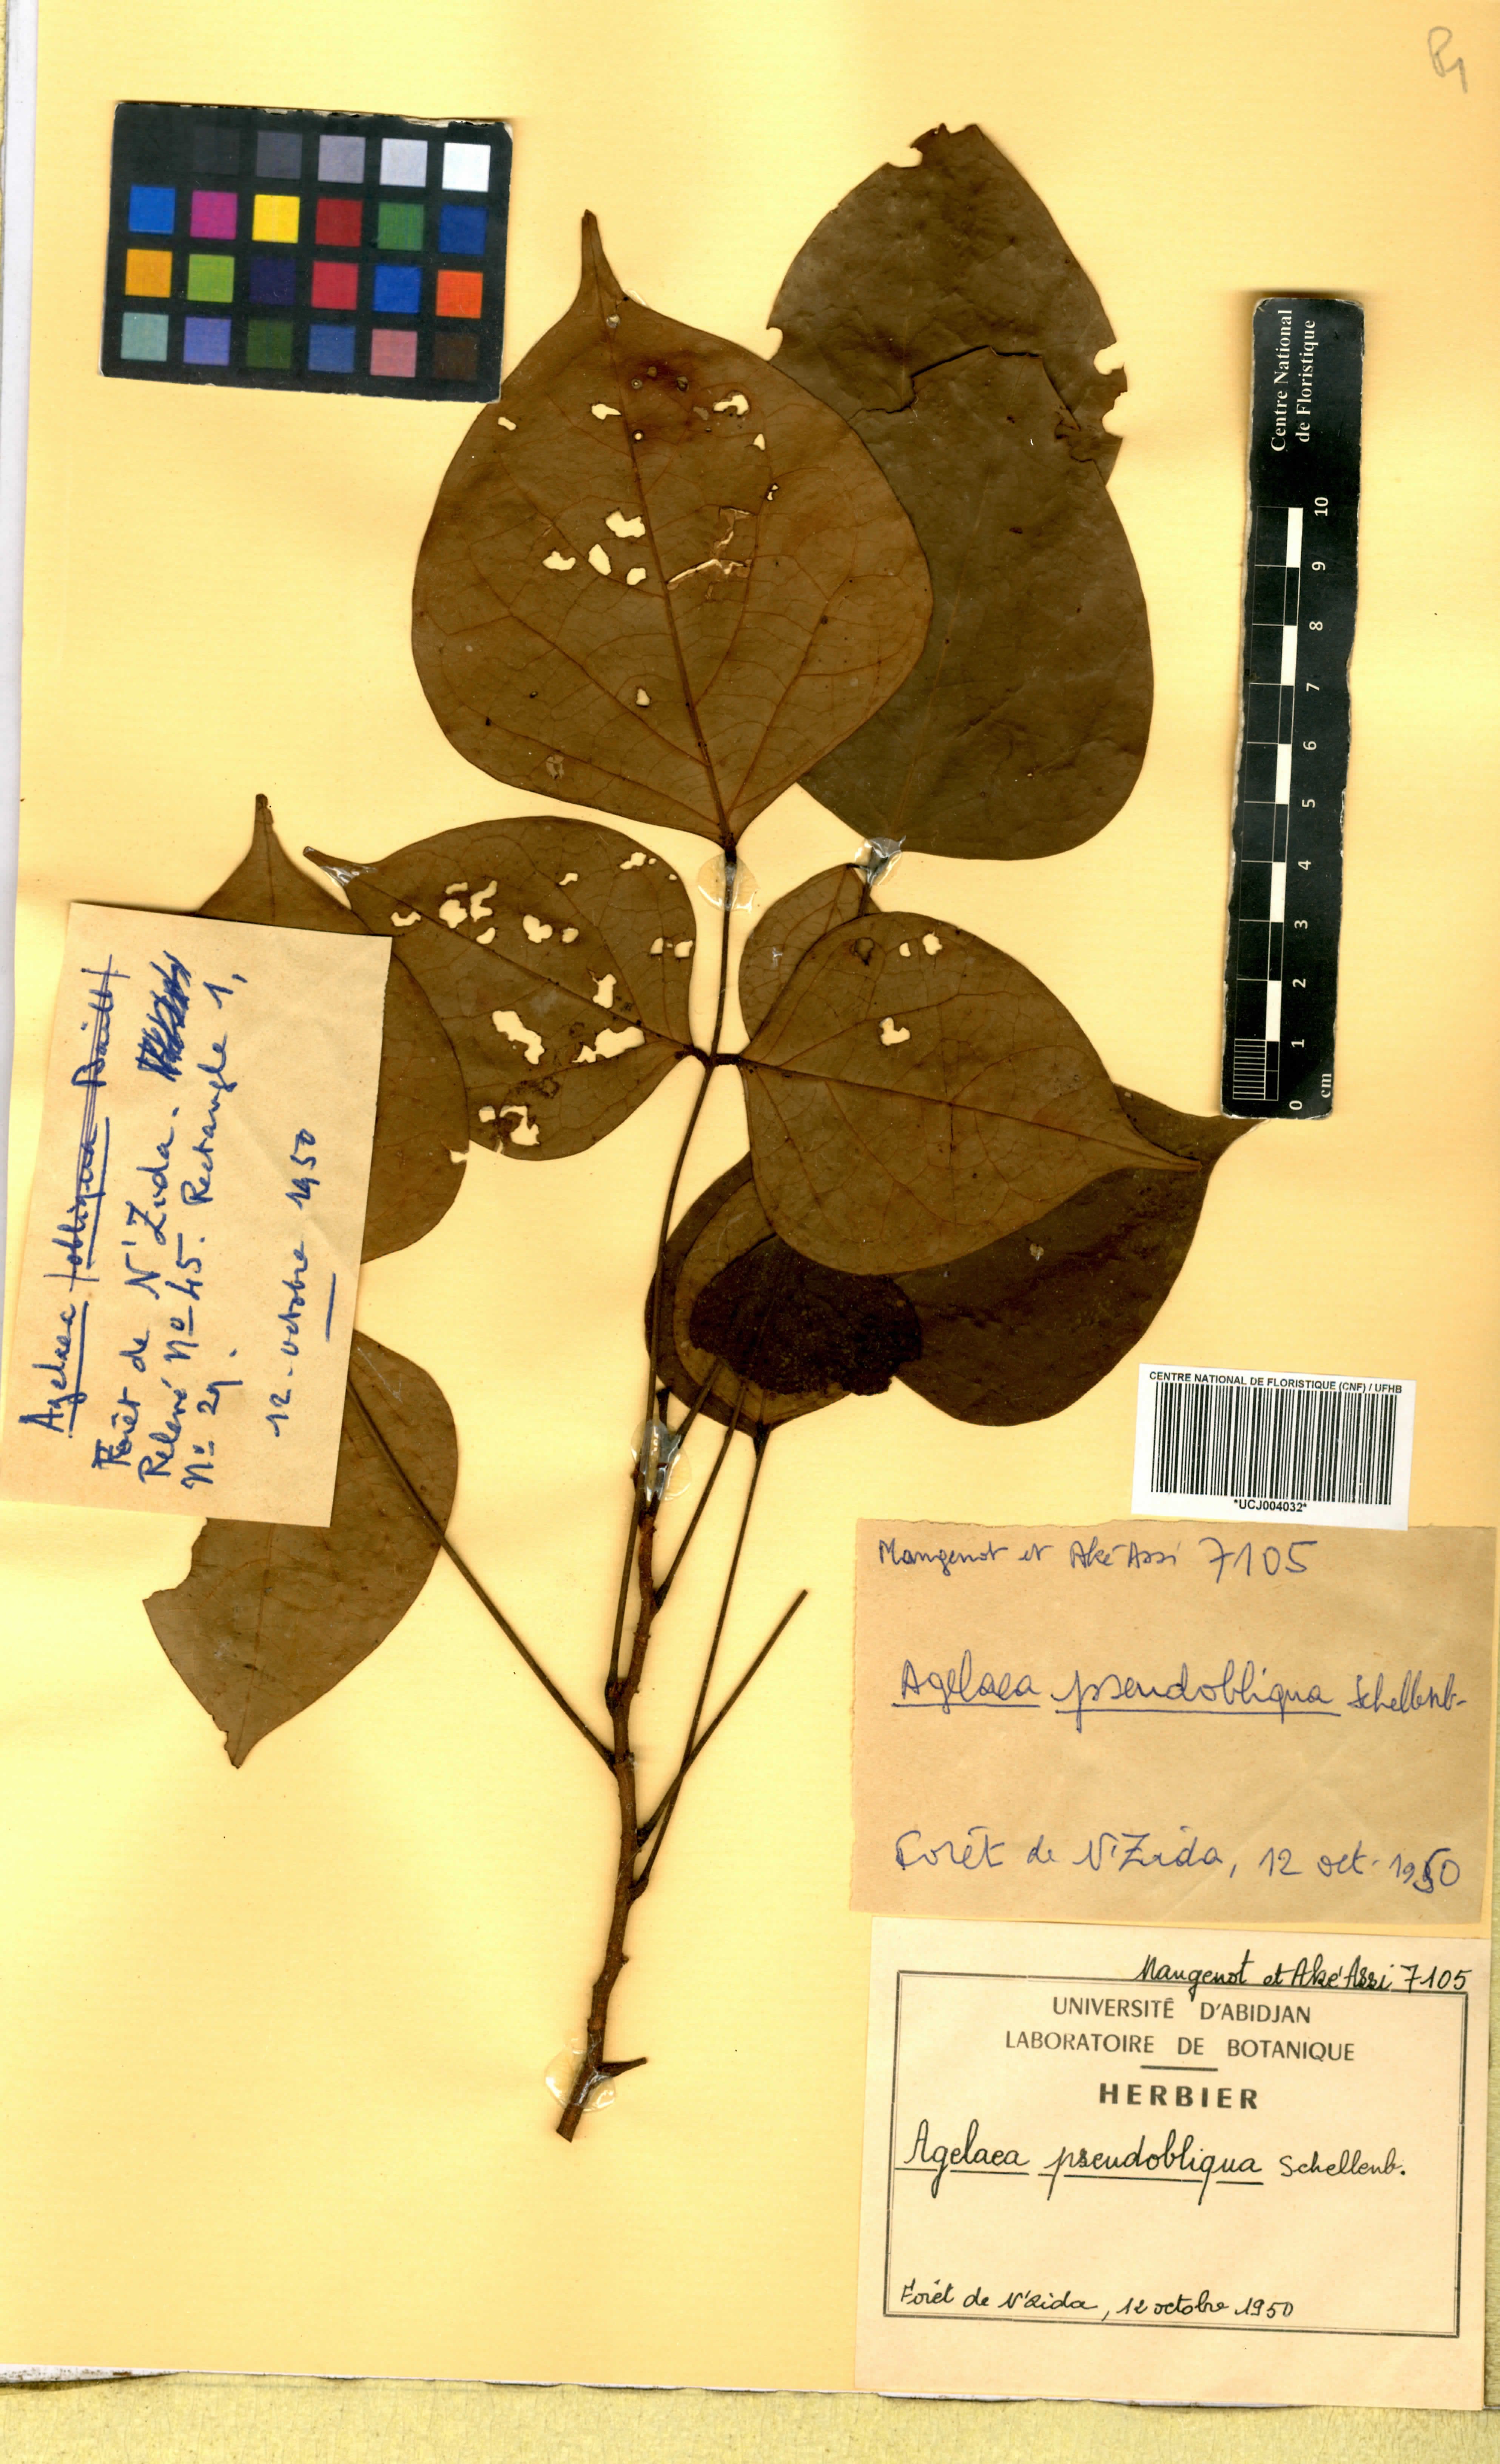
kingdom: Plantae
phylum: Tracheophyta
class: Magnoliopsida
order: Oxalidales
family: Connaraceae
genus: Agelaea
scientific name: Agelaea pentagyna
